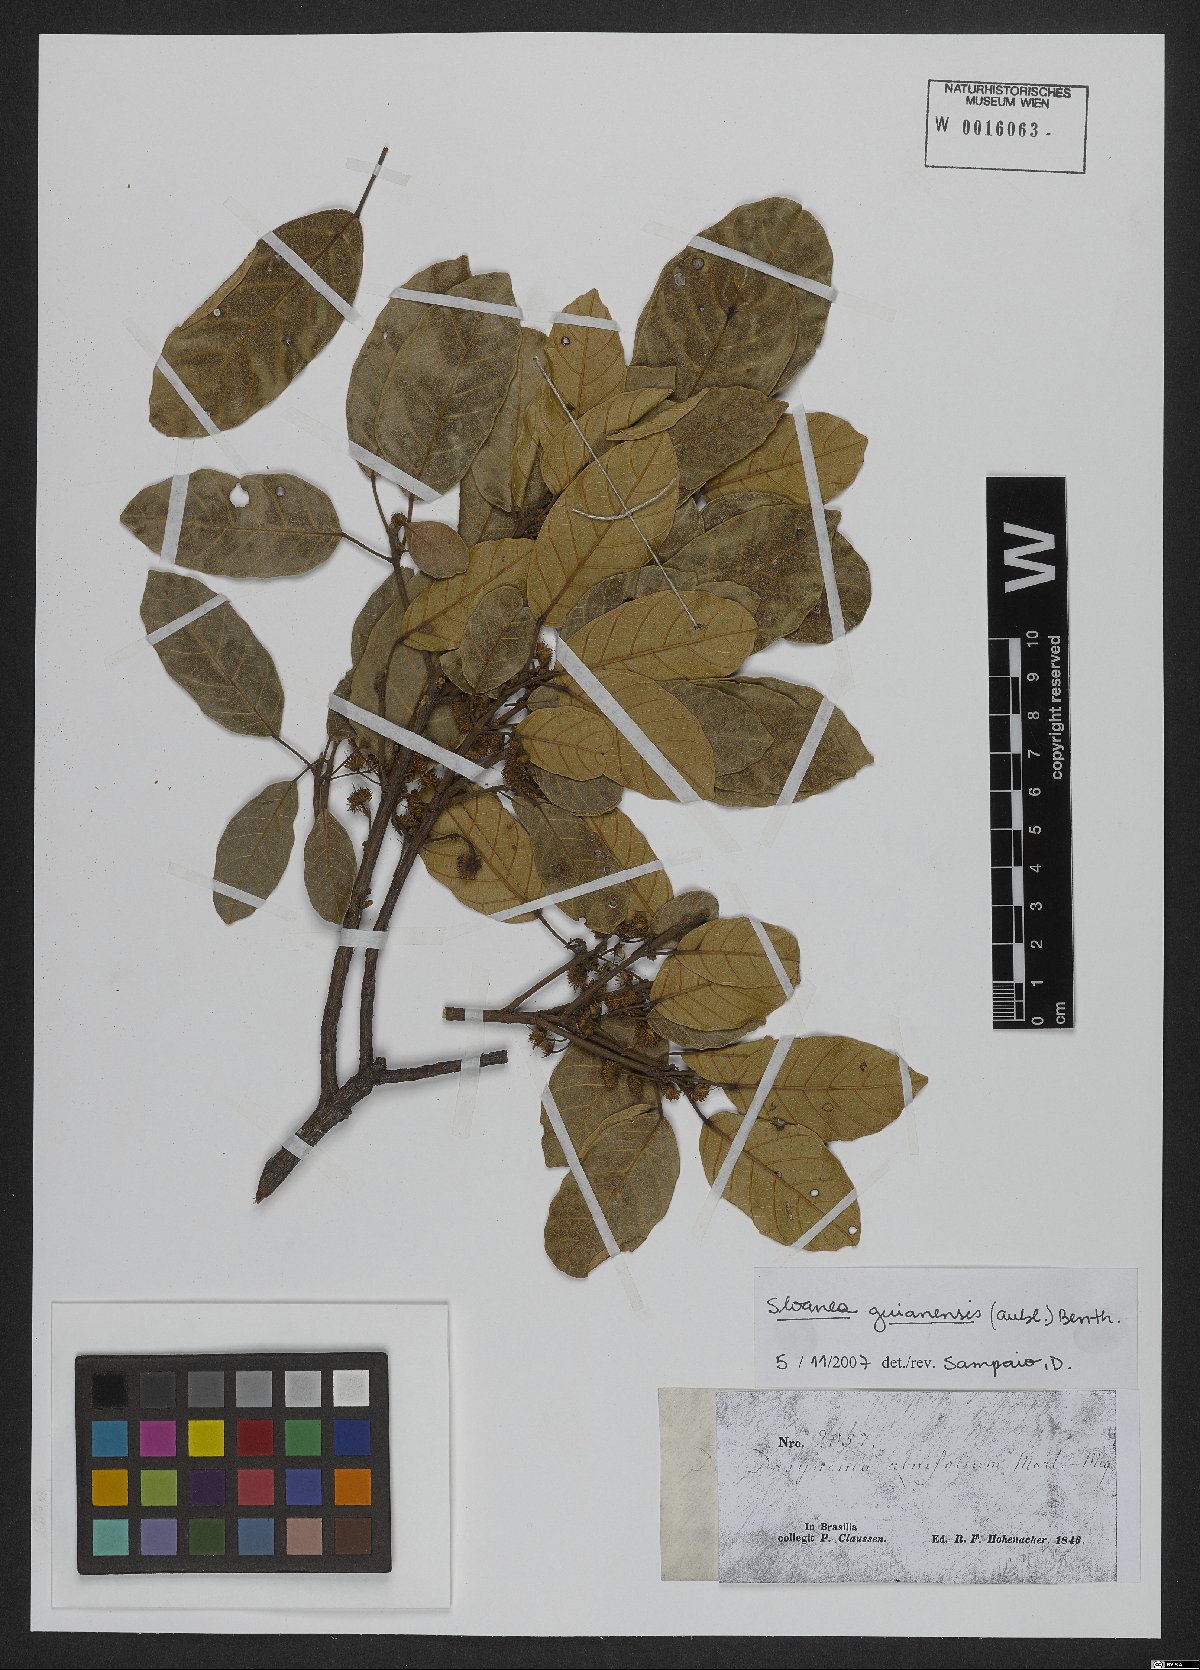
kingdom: Plantae
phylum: Tracheophyta
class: Magnoliopsida
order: Oxalidales
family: Elaeocarpaceae
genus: Sloanea
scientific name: Sloanea guianensis
